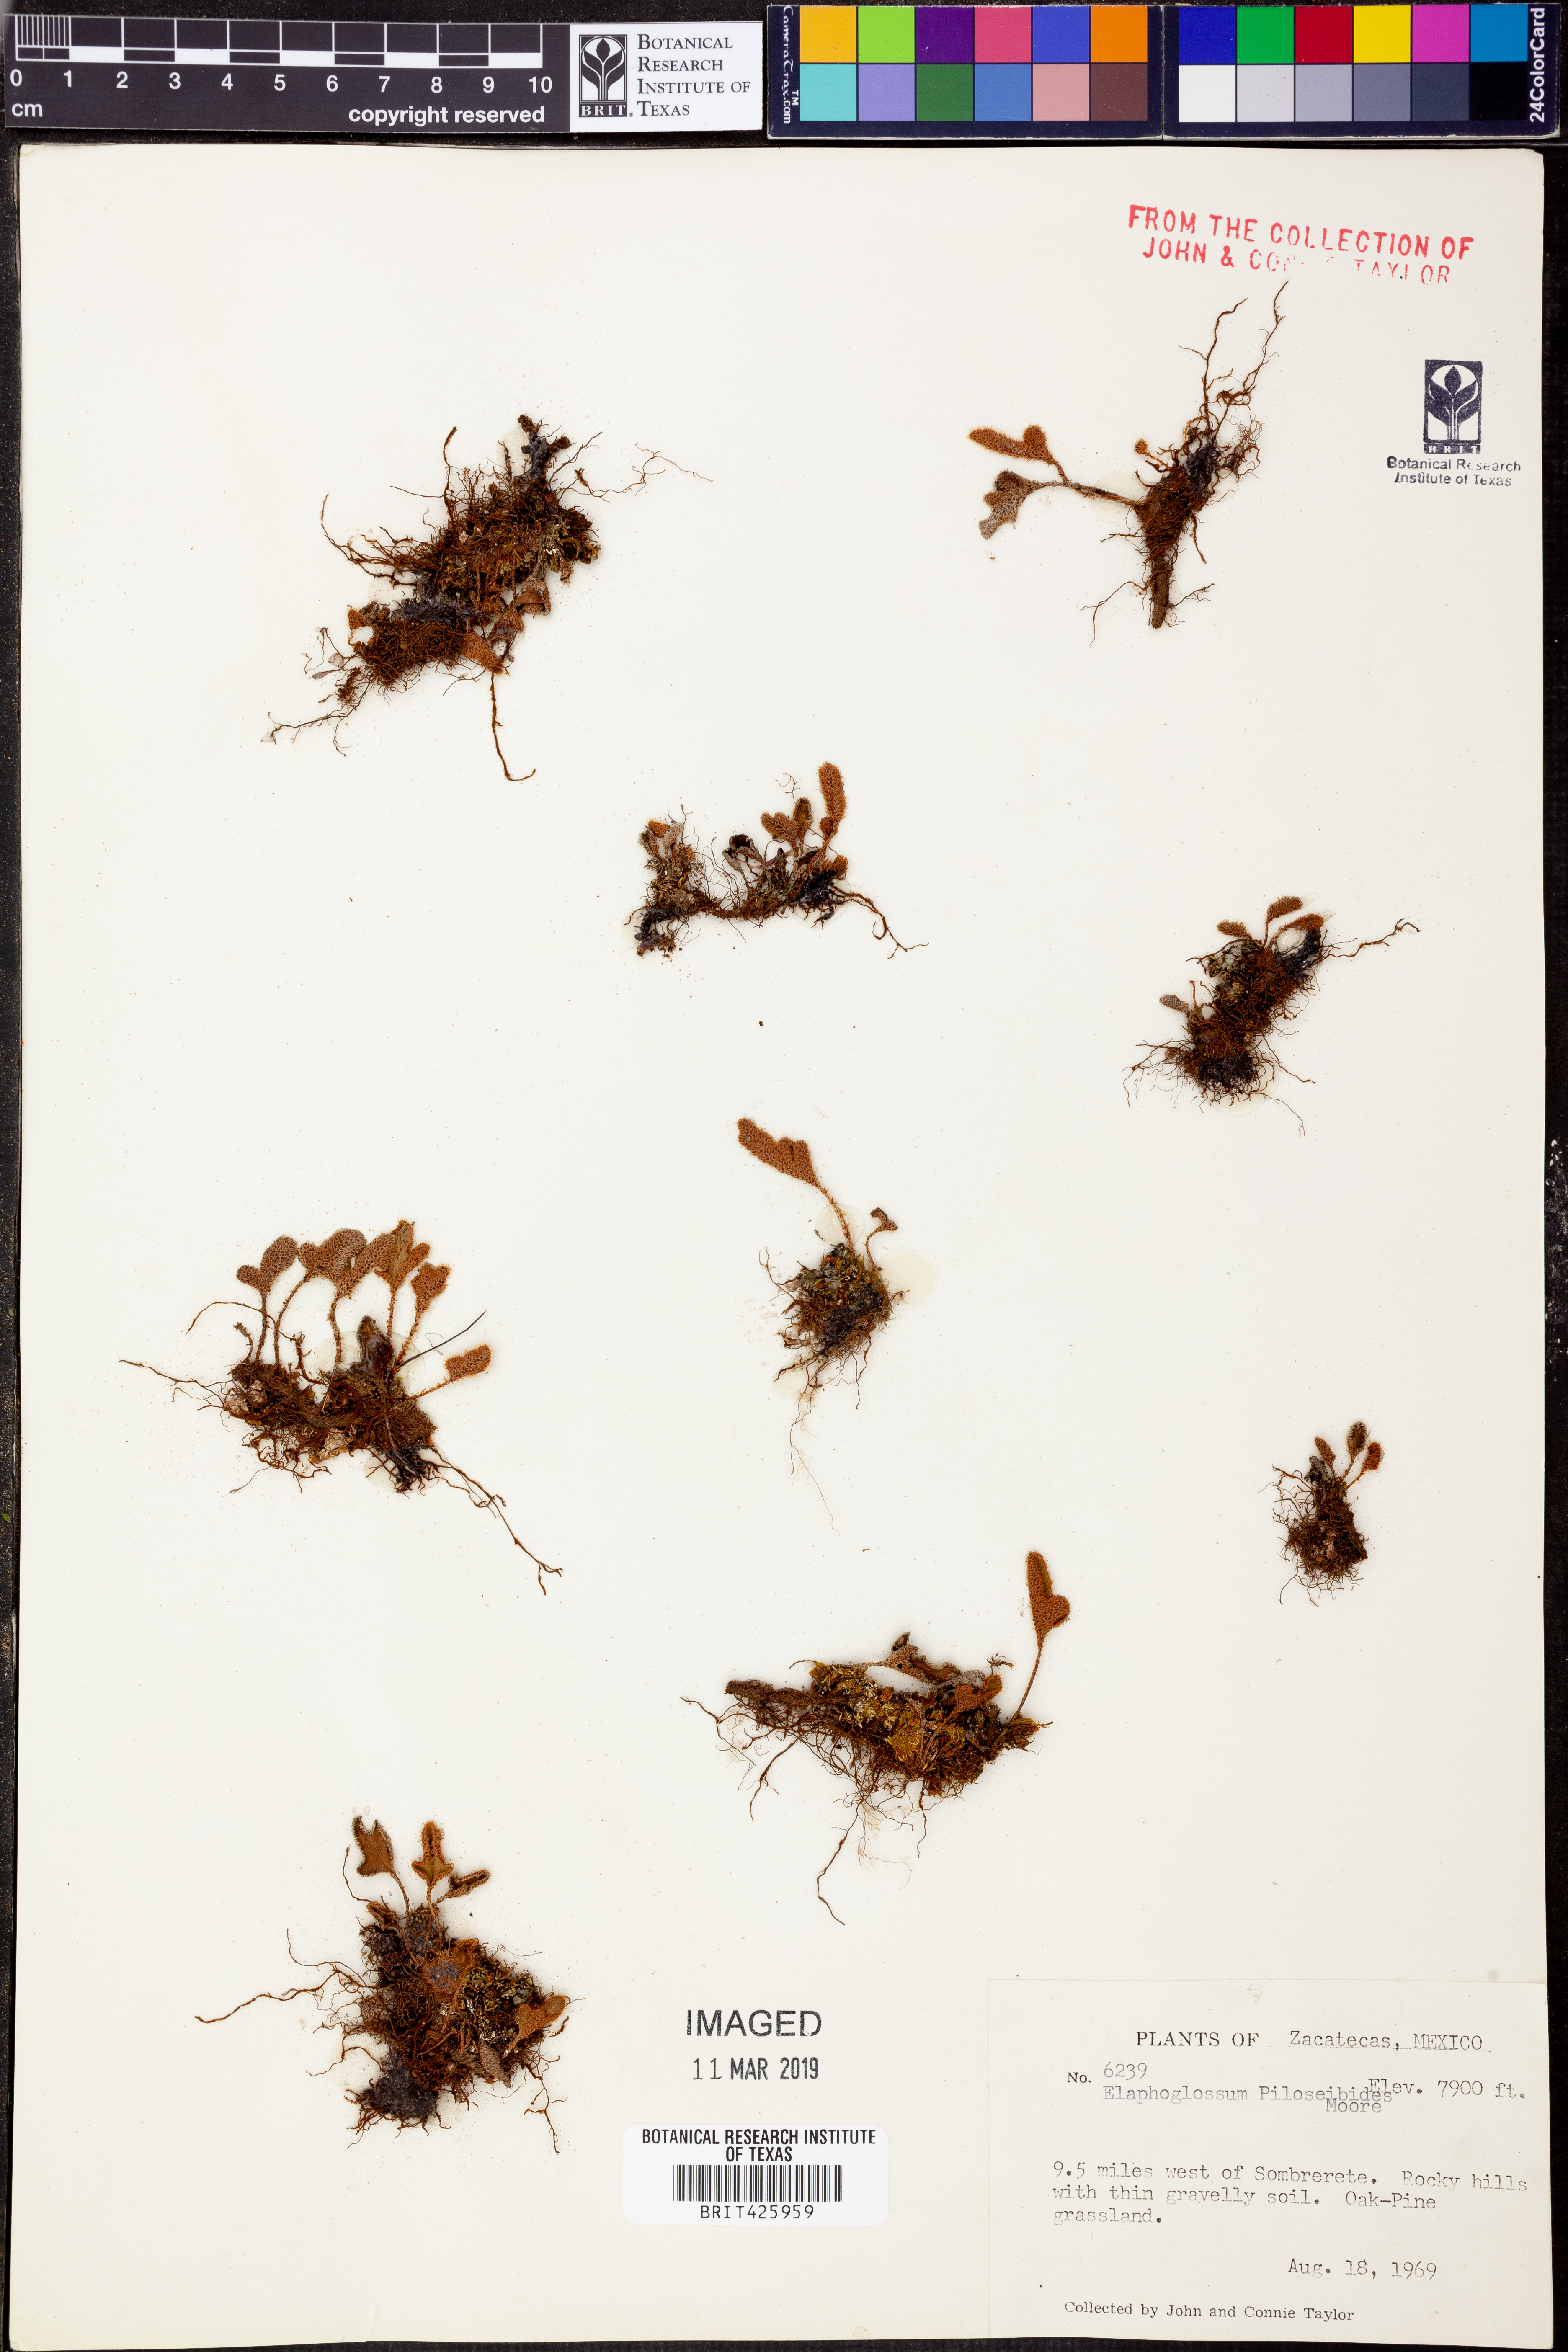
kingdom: Plantae
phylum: Tracheophyta
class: Polypodiopsida
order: Polypodiales
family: Dryopteridaceae
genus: Elaphoglossum
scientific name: Elaphoglossum piloselloides
